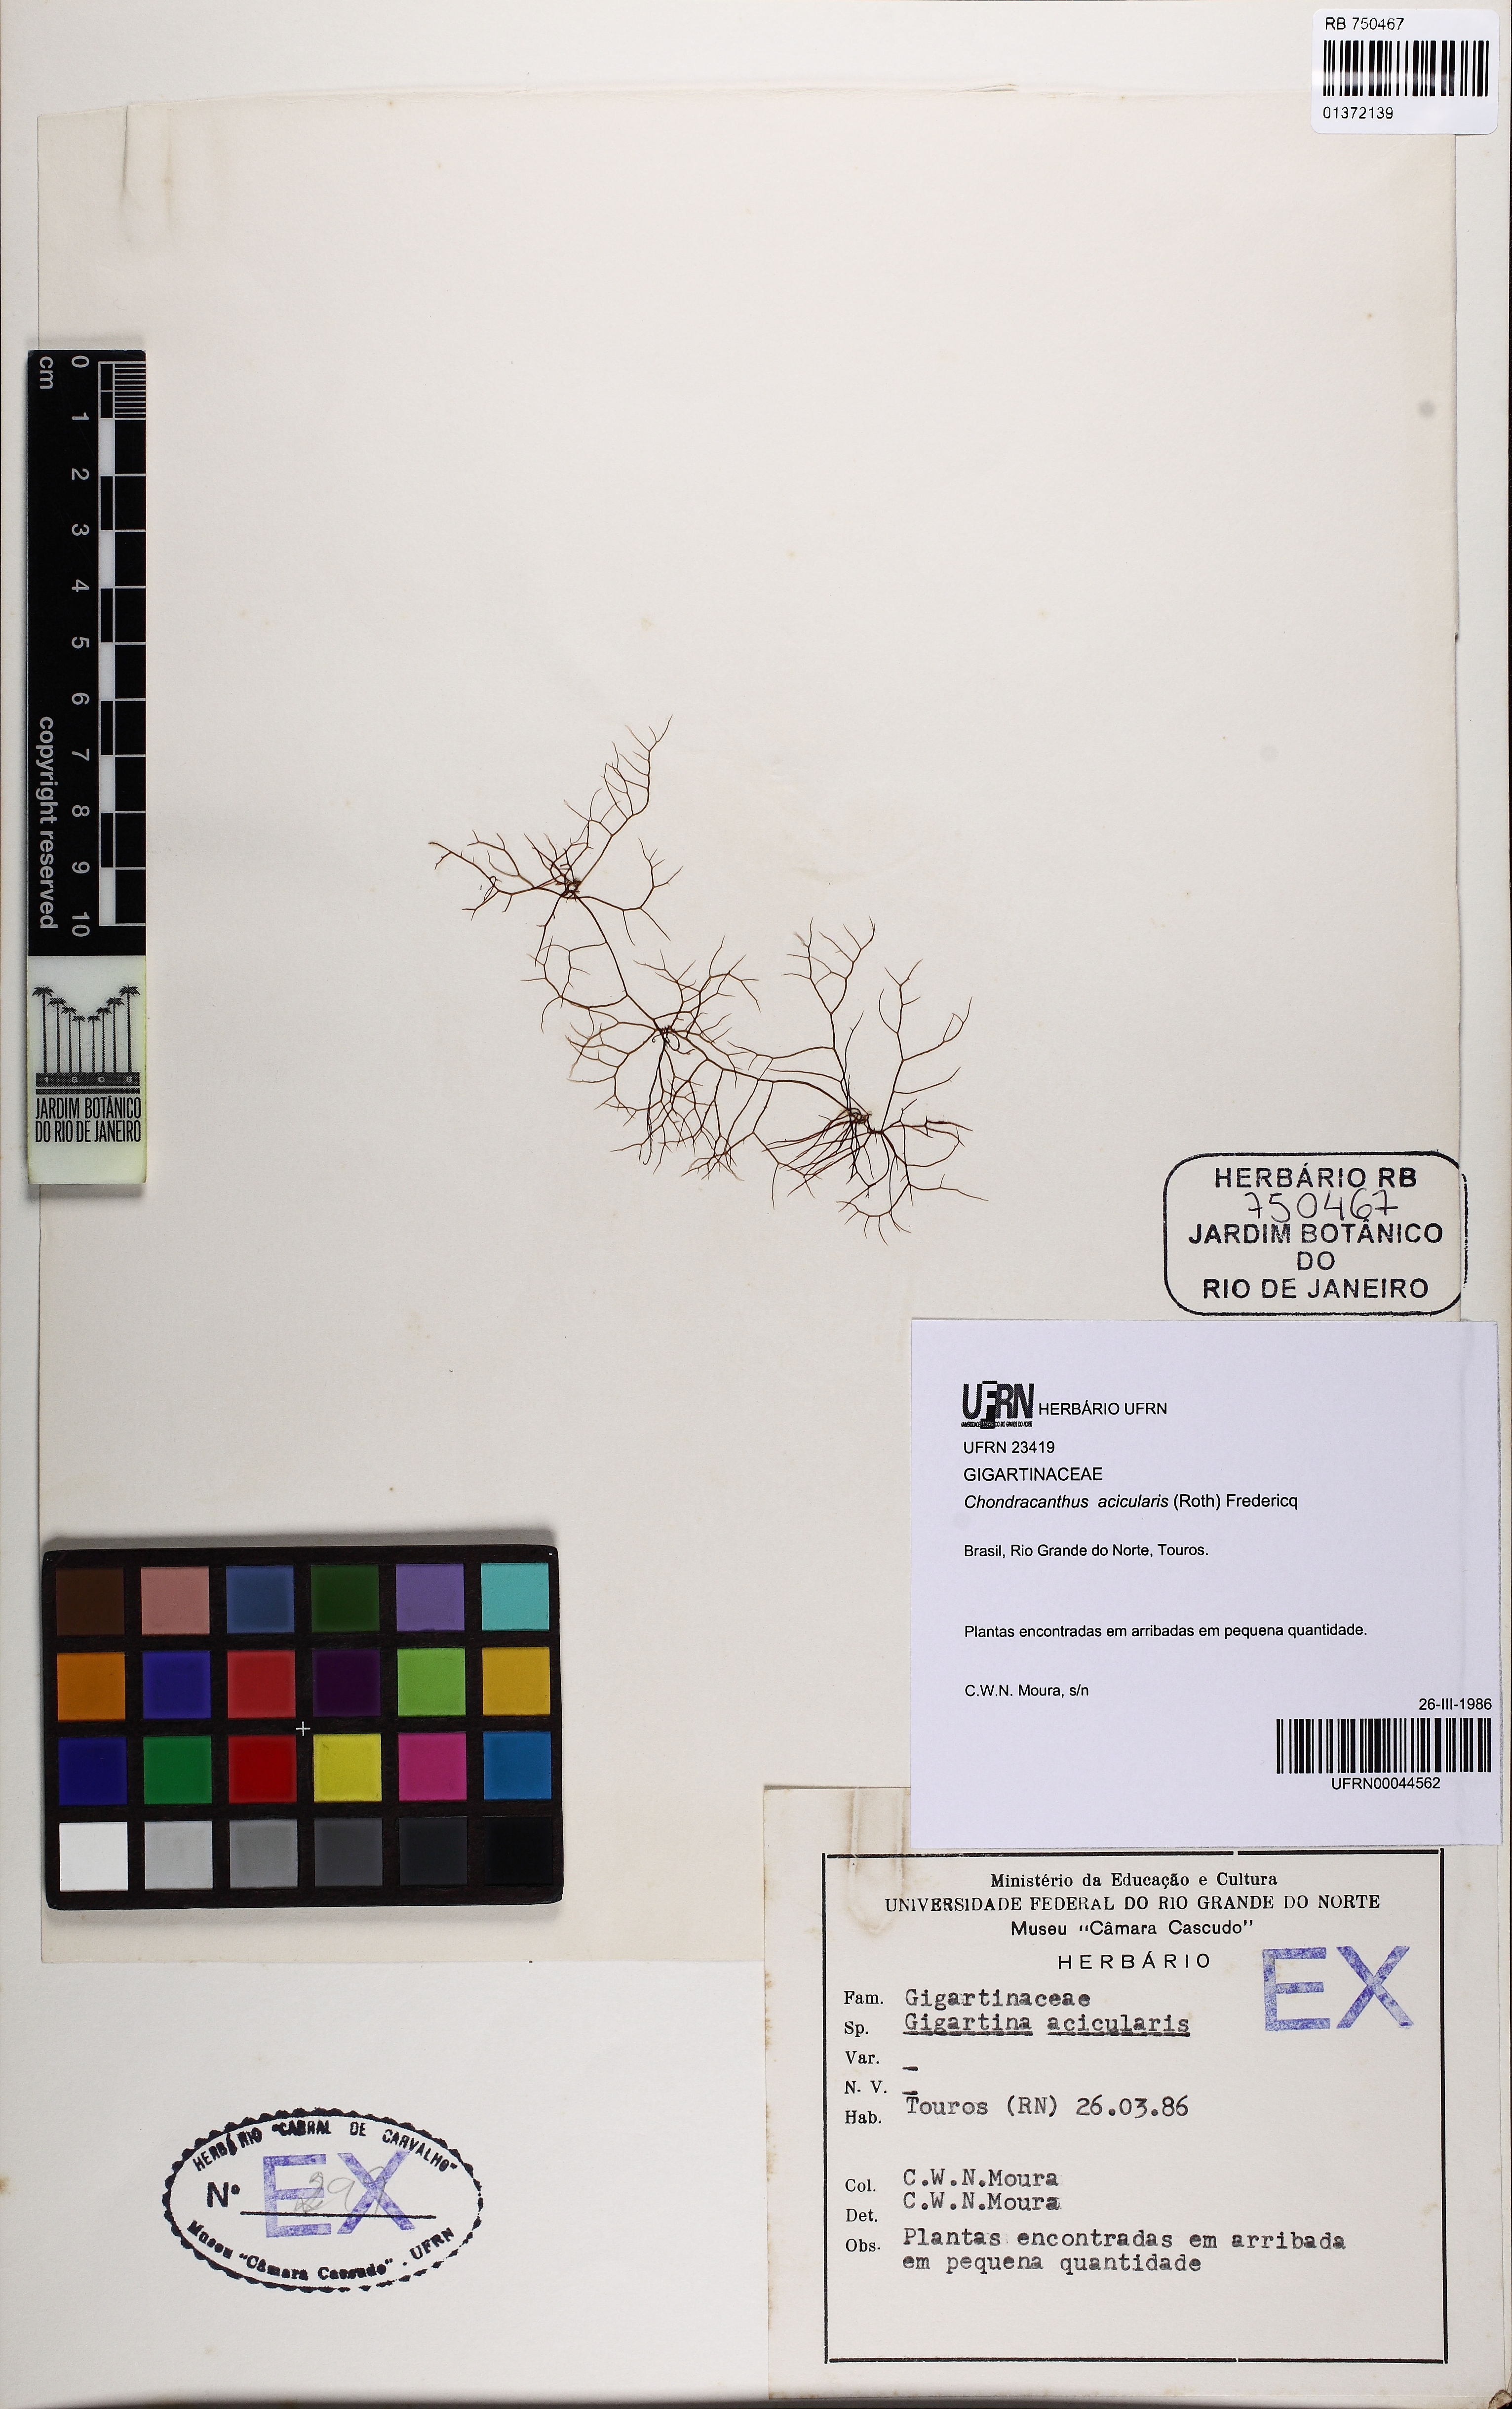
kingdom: Plantae
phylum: Rhodophyta
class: Florideophyceae
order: Gigartinales
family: Gigartinaceae
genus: Chondracanthus
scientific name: Chondracanthus acicularis
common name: Creephorn
